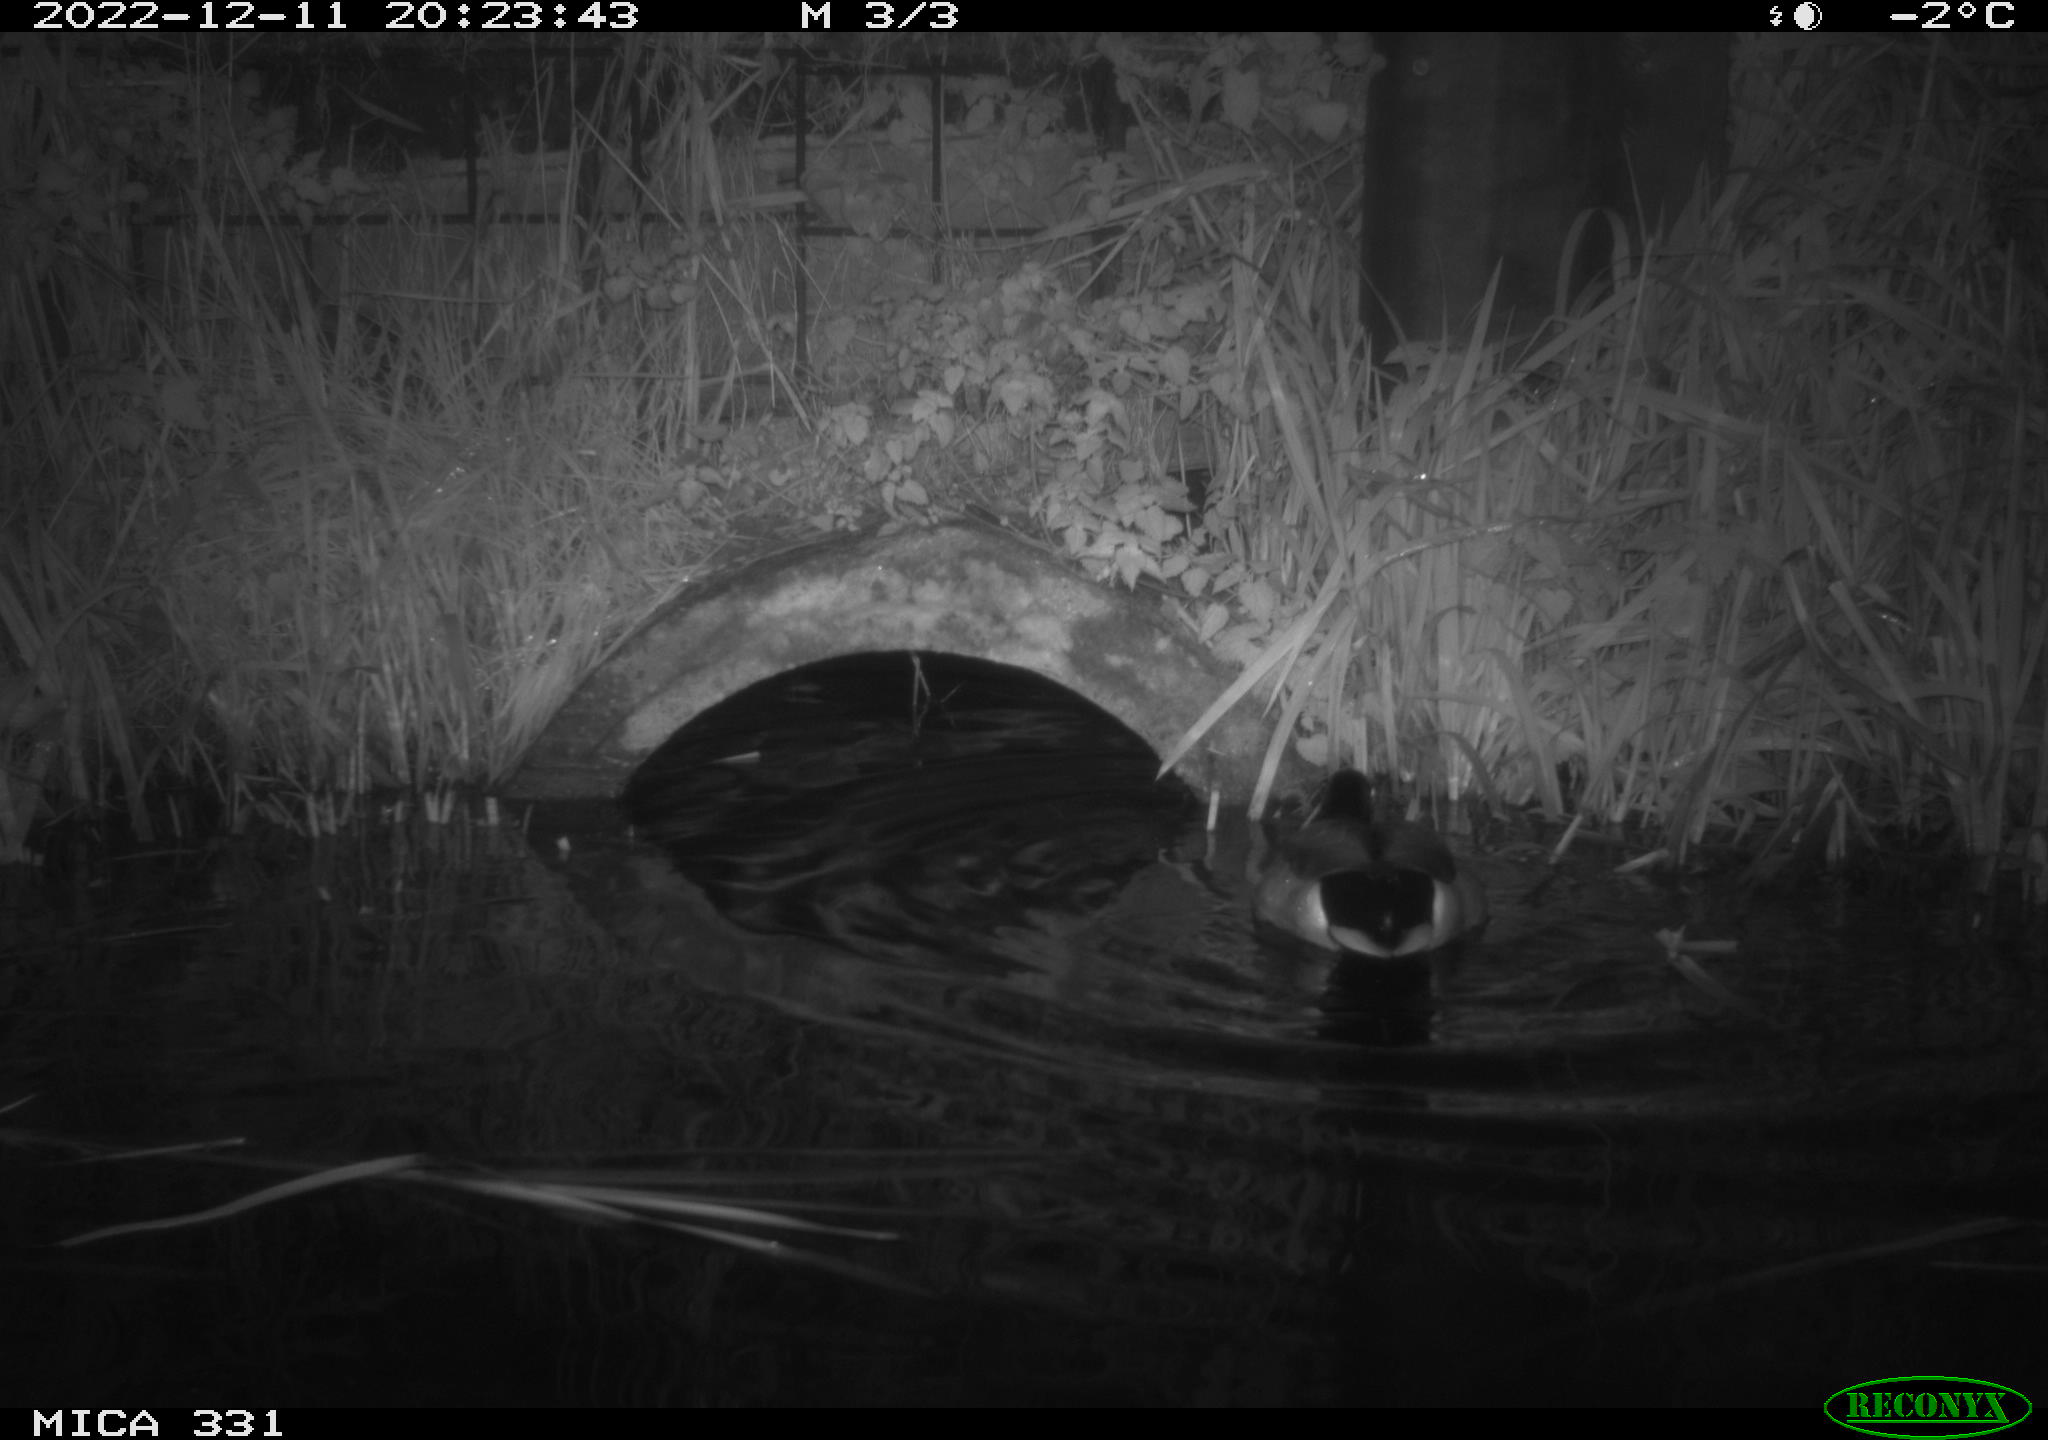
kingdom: Animalia
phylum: Chordata
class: Aves
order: Anseriformes
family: Anatidae
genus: Anas
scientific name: Anas platyrhynchos
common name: Mallard
